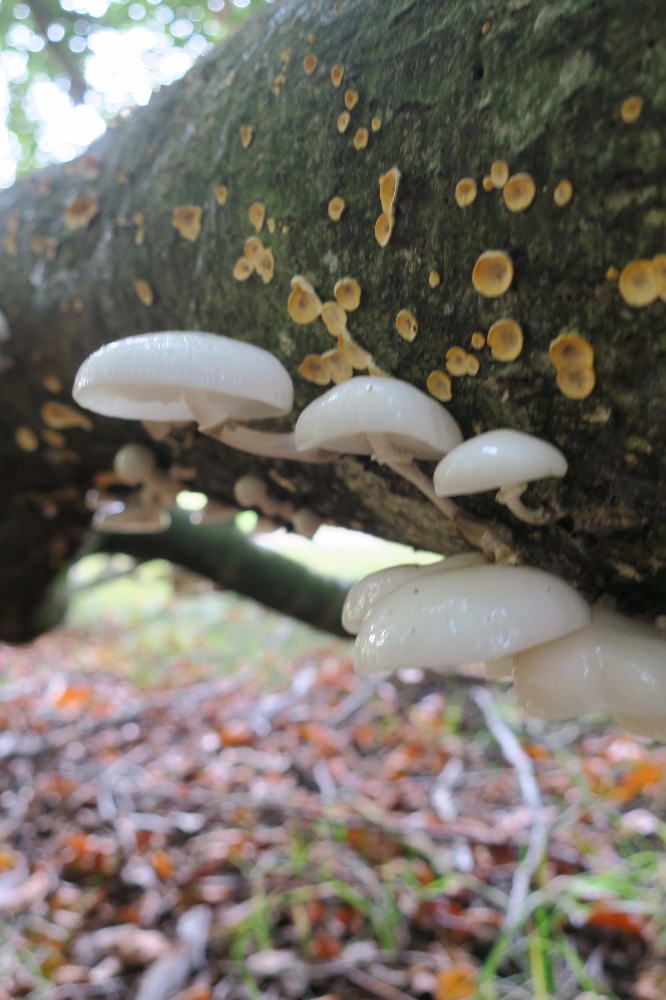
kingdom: Fungi
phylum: Basidiomycota
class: Agaricomycetes
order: Agaricales
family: Physalacriaceae
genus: Mucidula
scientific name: Mucidula mucida
